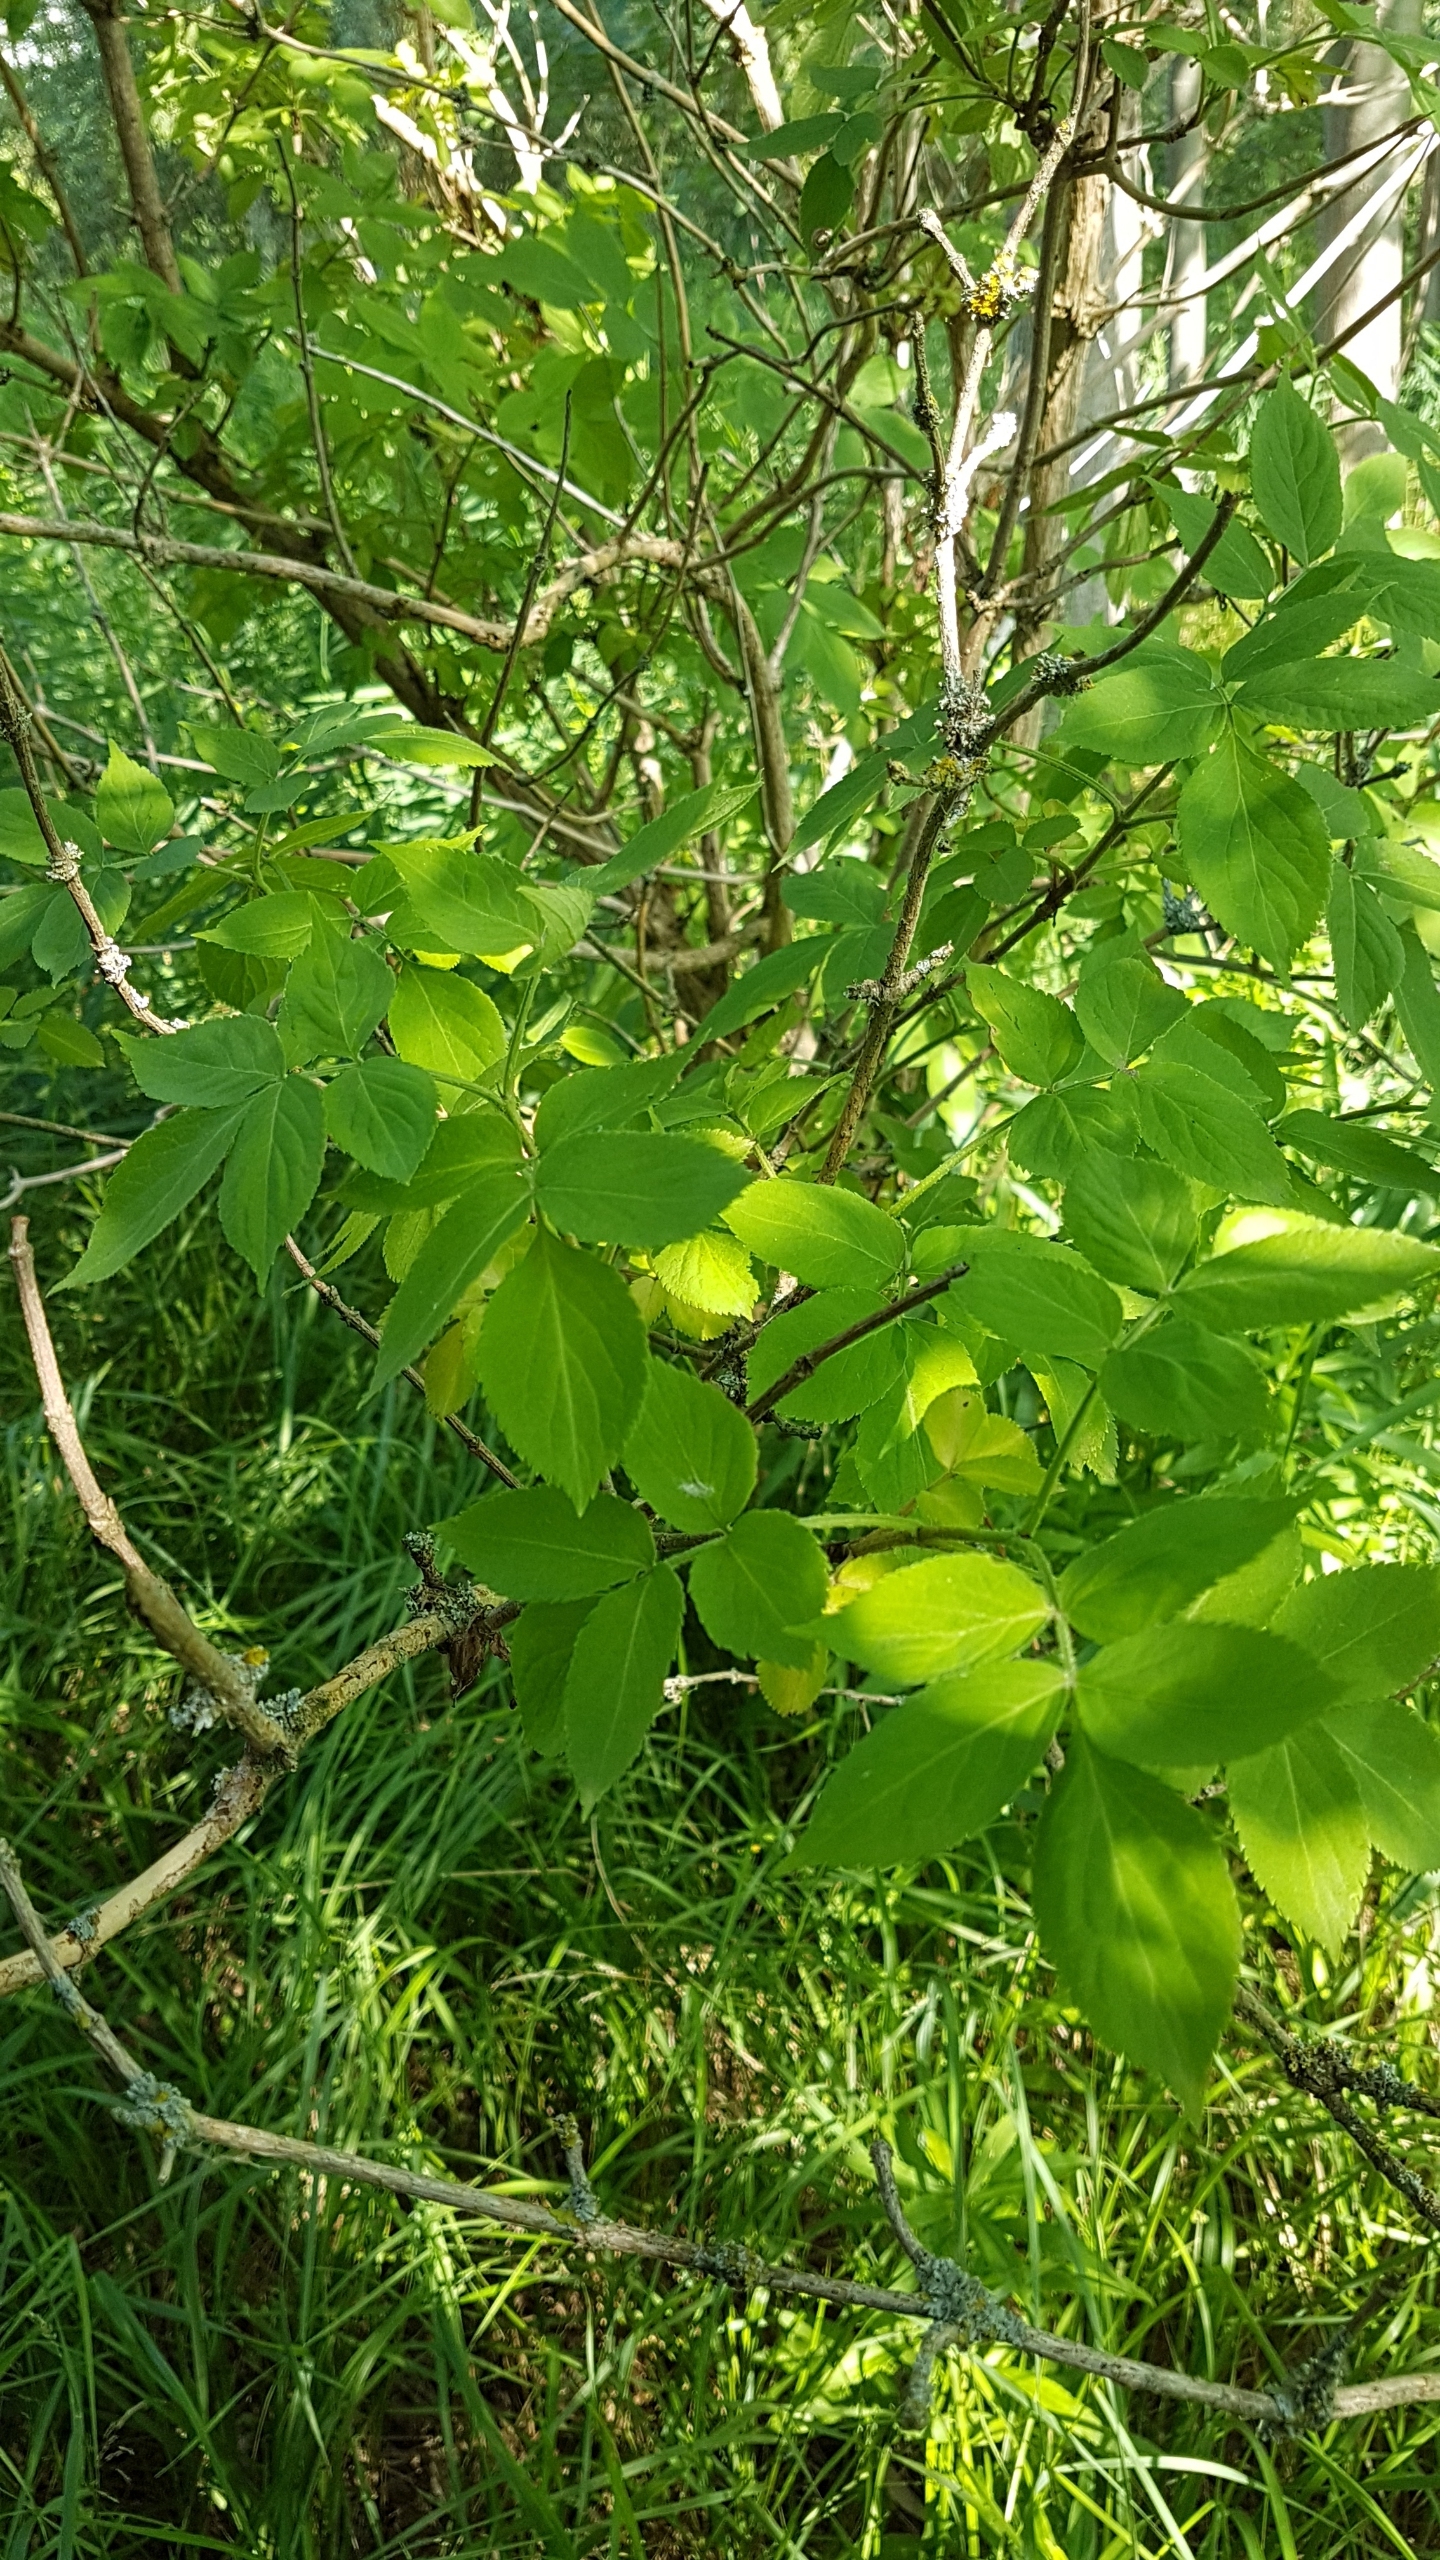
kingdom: Plantae
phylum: Tracheophyta
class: Magnoliopsida
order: Dipsacales
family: Viburnaceae
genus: Sambucus
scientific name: Sambucus nigra
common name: Almindelig hyld
